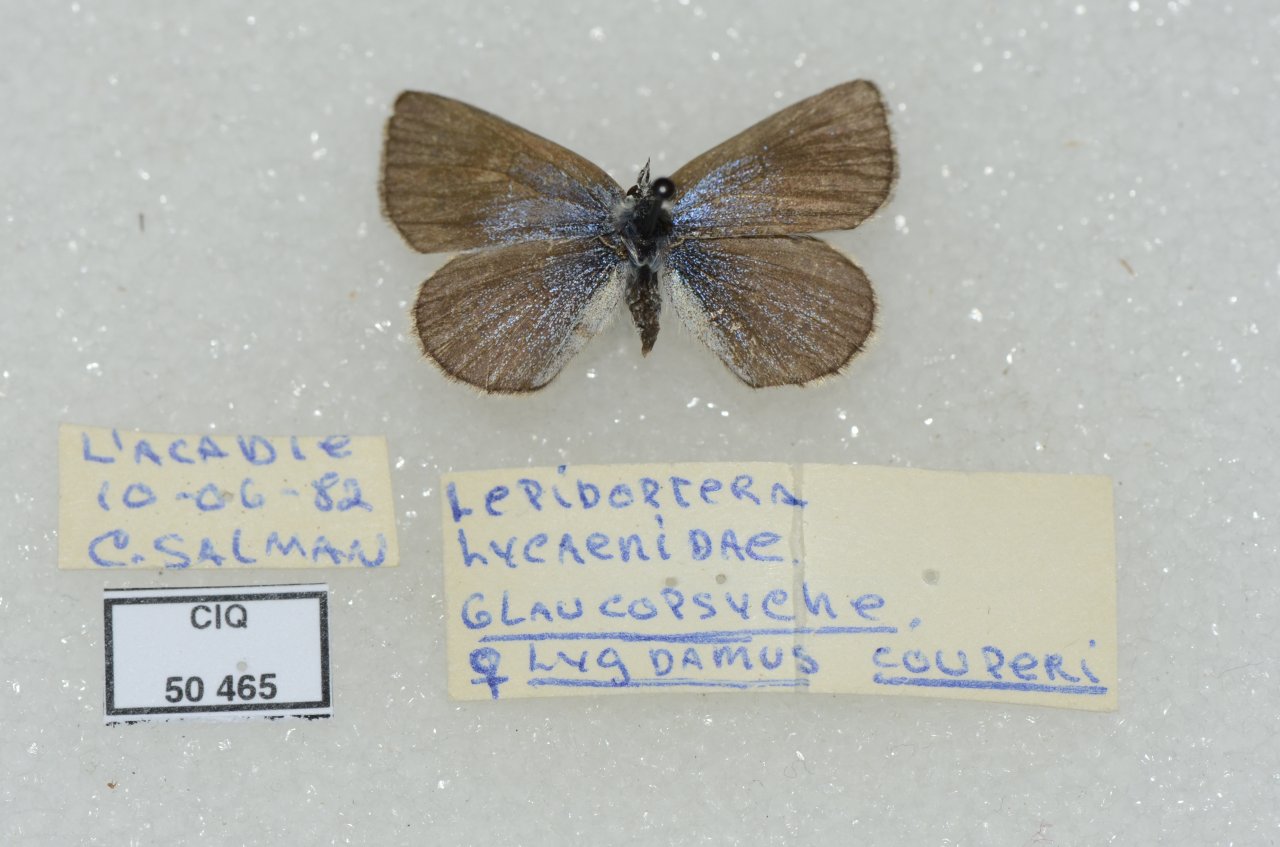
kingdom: Animalia
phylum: Arthropoda
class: Insecta
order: Lepidoptera
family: Lycaenidae
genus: Glaucopsyche
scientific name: Glaucopsyche lygdamus
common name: Silvery Blue
